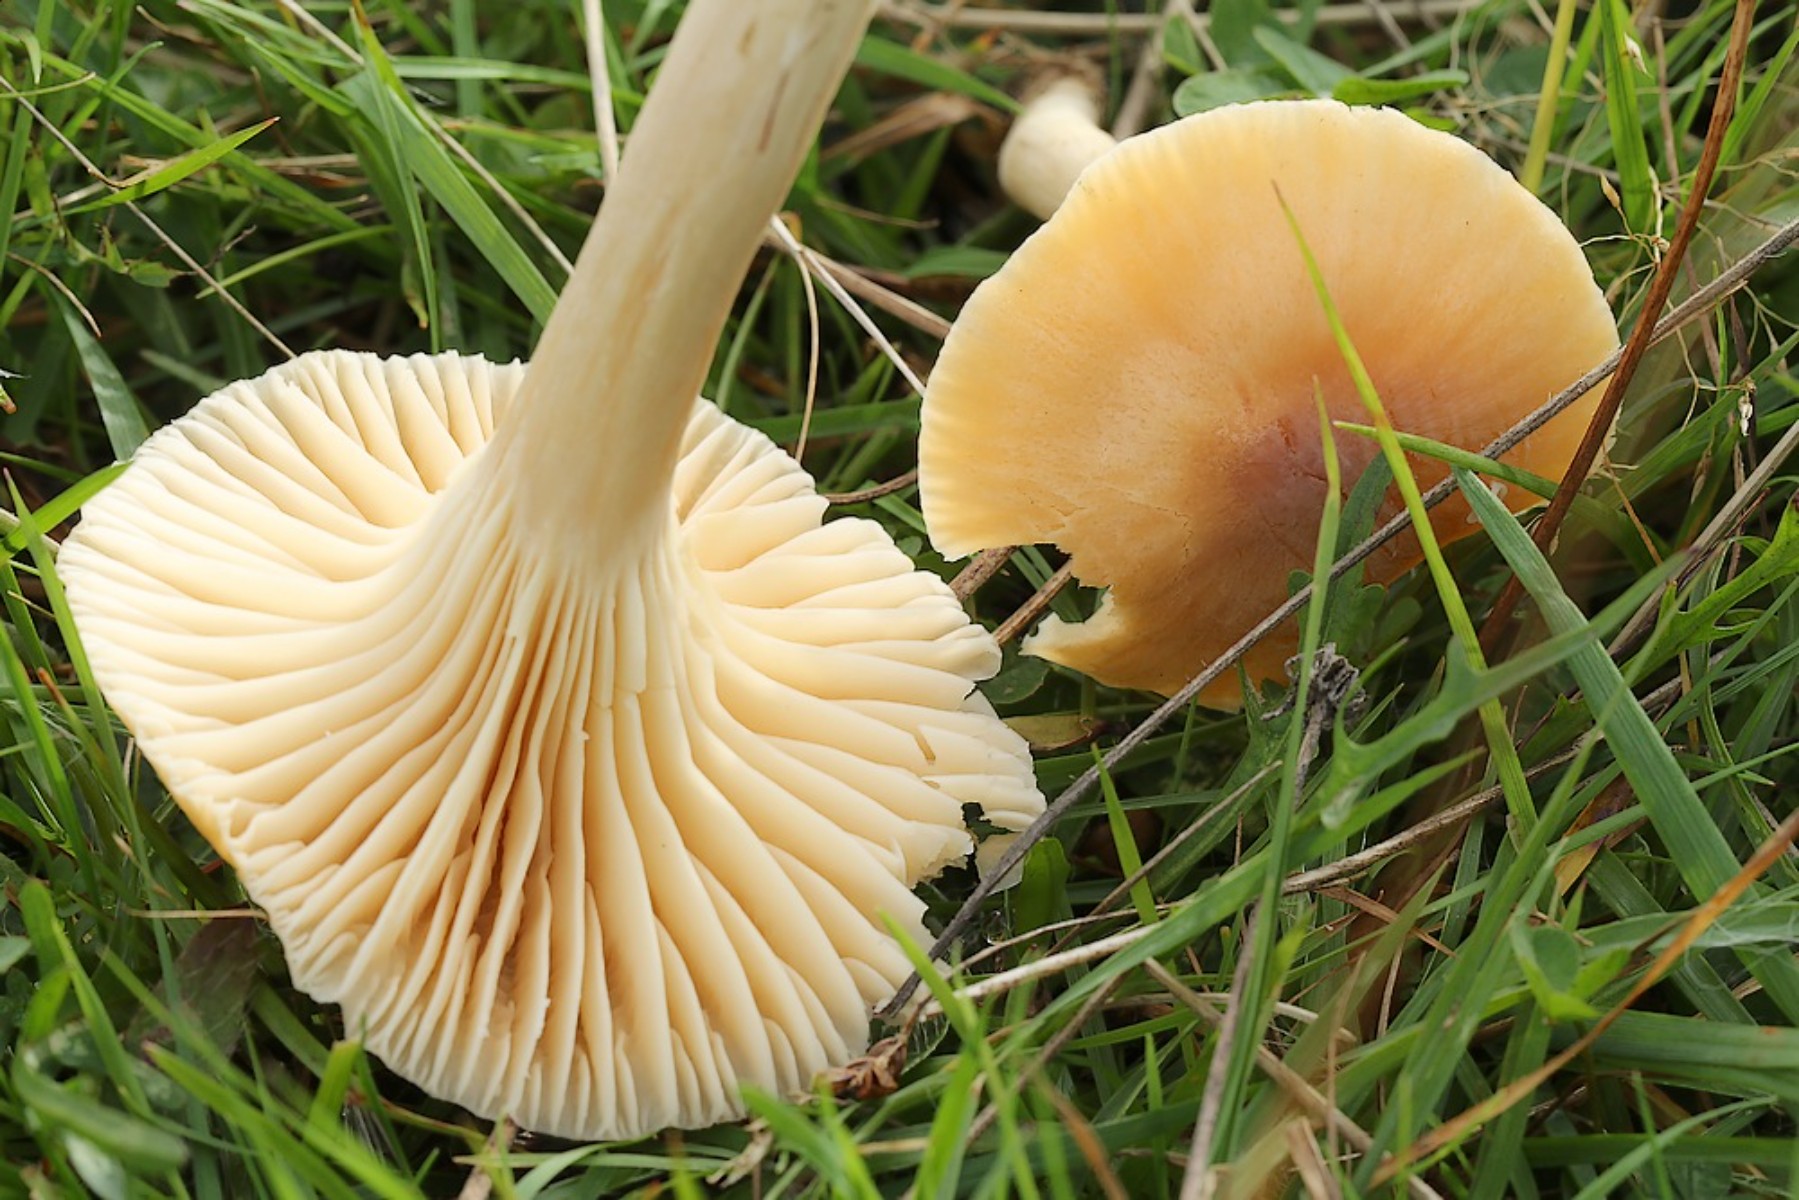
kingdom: Fungi
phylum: Basidiomycota
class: Agaricomycetes
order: Agaricales
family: Hygrophoraceae
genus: Cuphophyllus
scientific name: Cuphophyllus pratensis
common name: eng-vokshat
